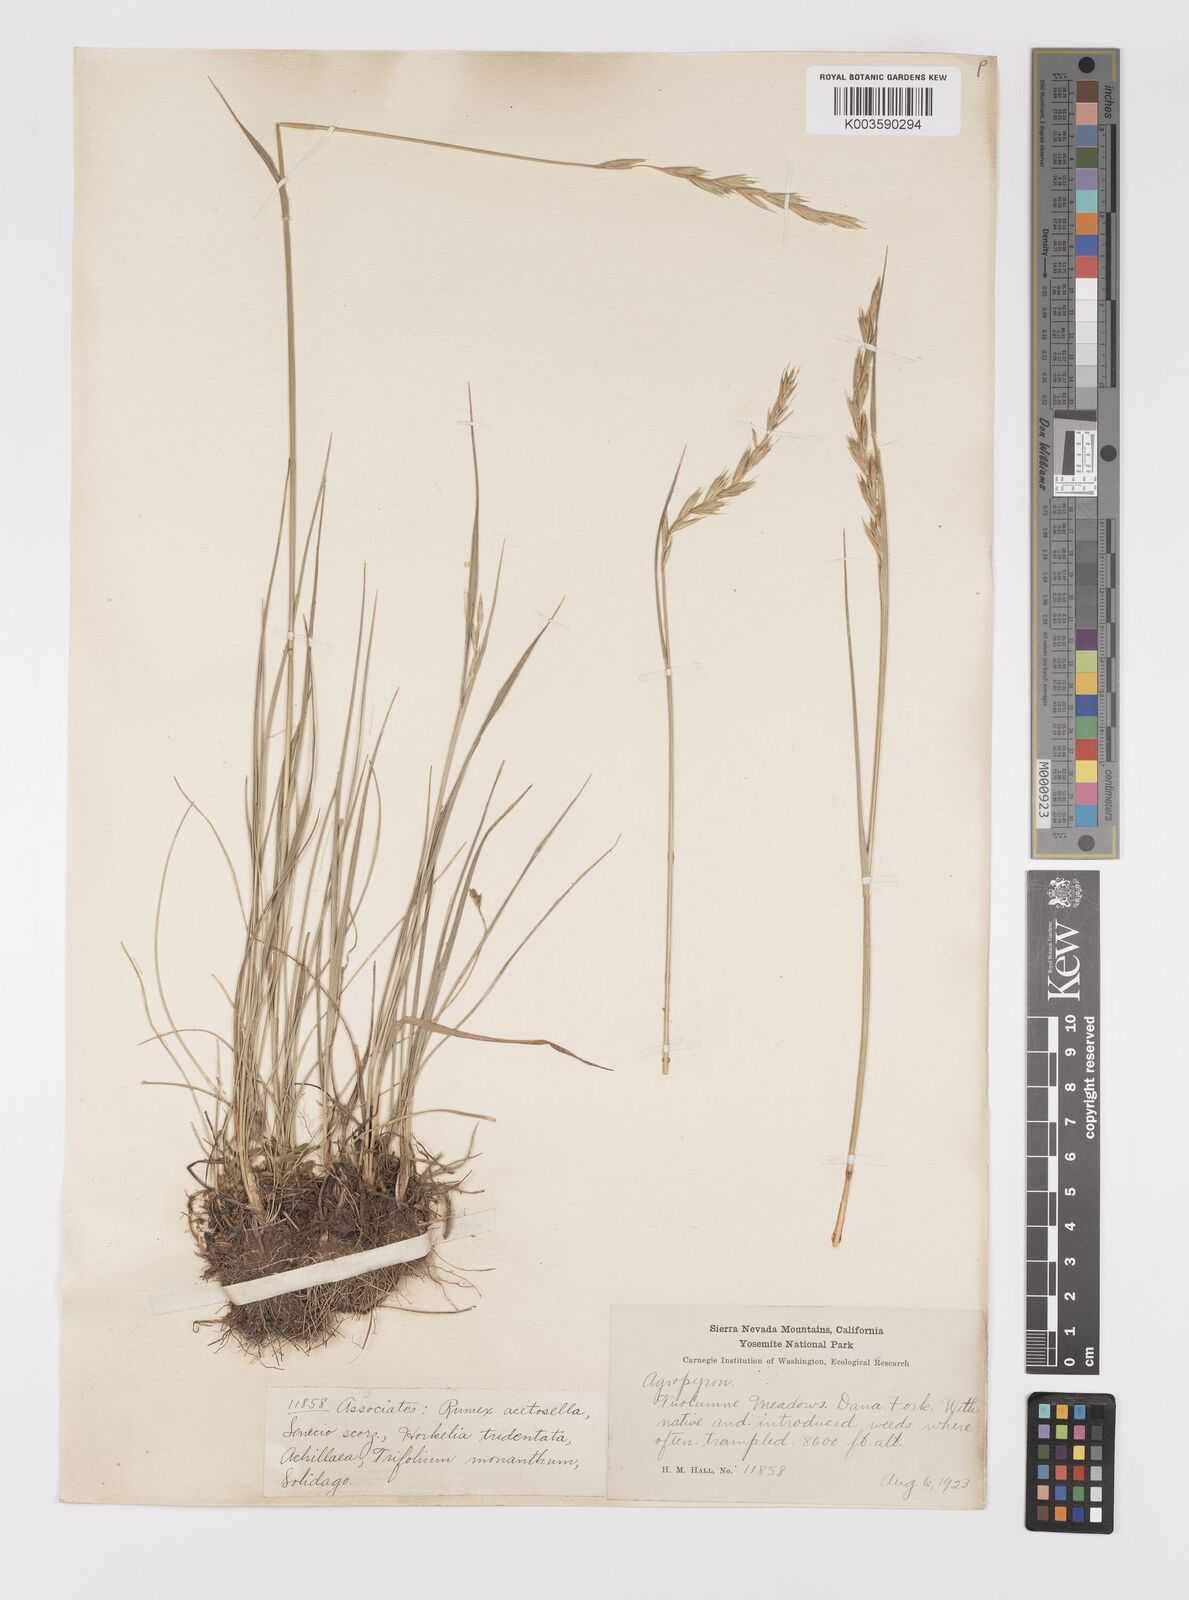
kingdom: Plantae
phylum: Tracheophyta
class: Liliopsida
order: Poales
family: Poaceae
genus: Elymus
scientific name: Elymus
